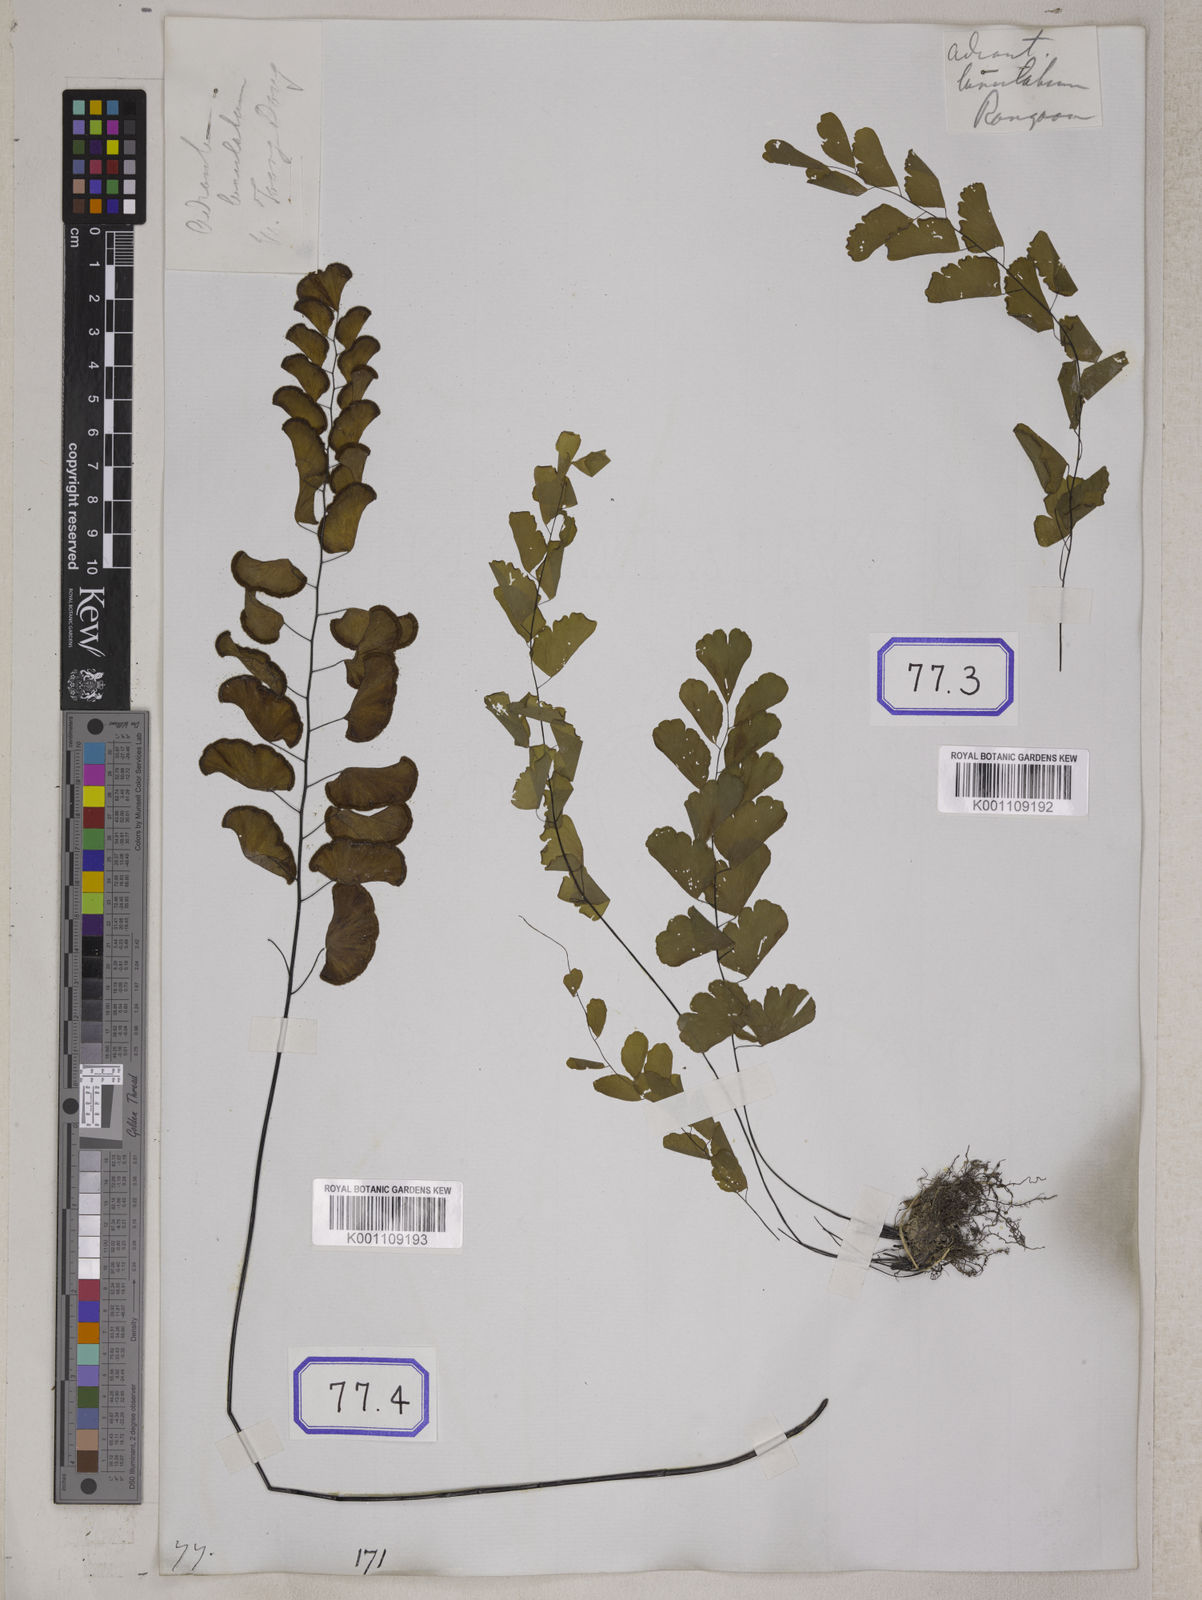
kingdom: Plantae
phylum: Tracheophyta
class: Polypodiopsida
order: Polypodiales
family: Pteridaceae
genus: Adiantum
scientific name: Adiantum philippense
